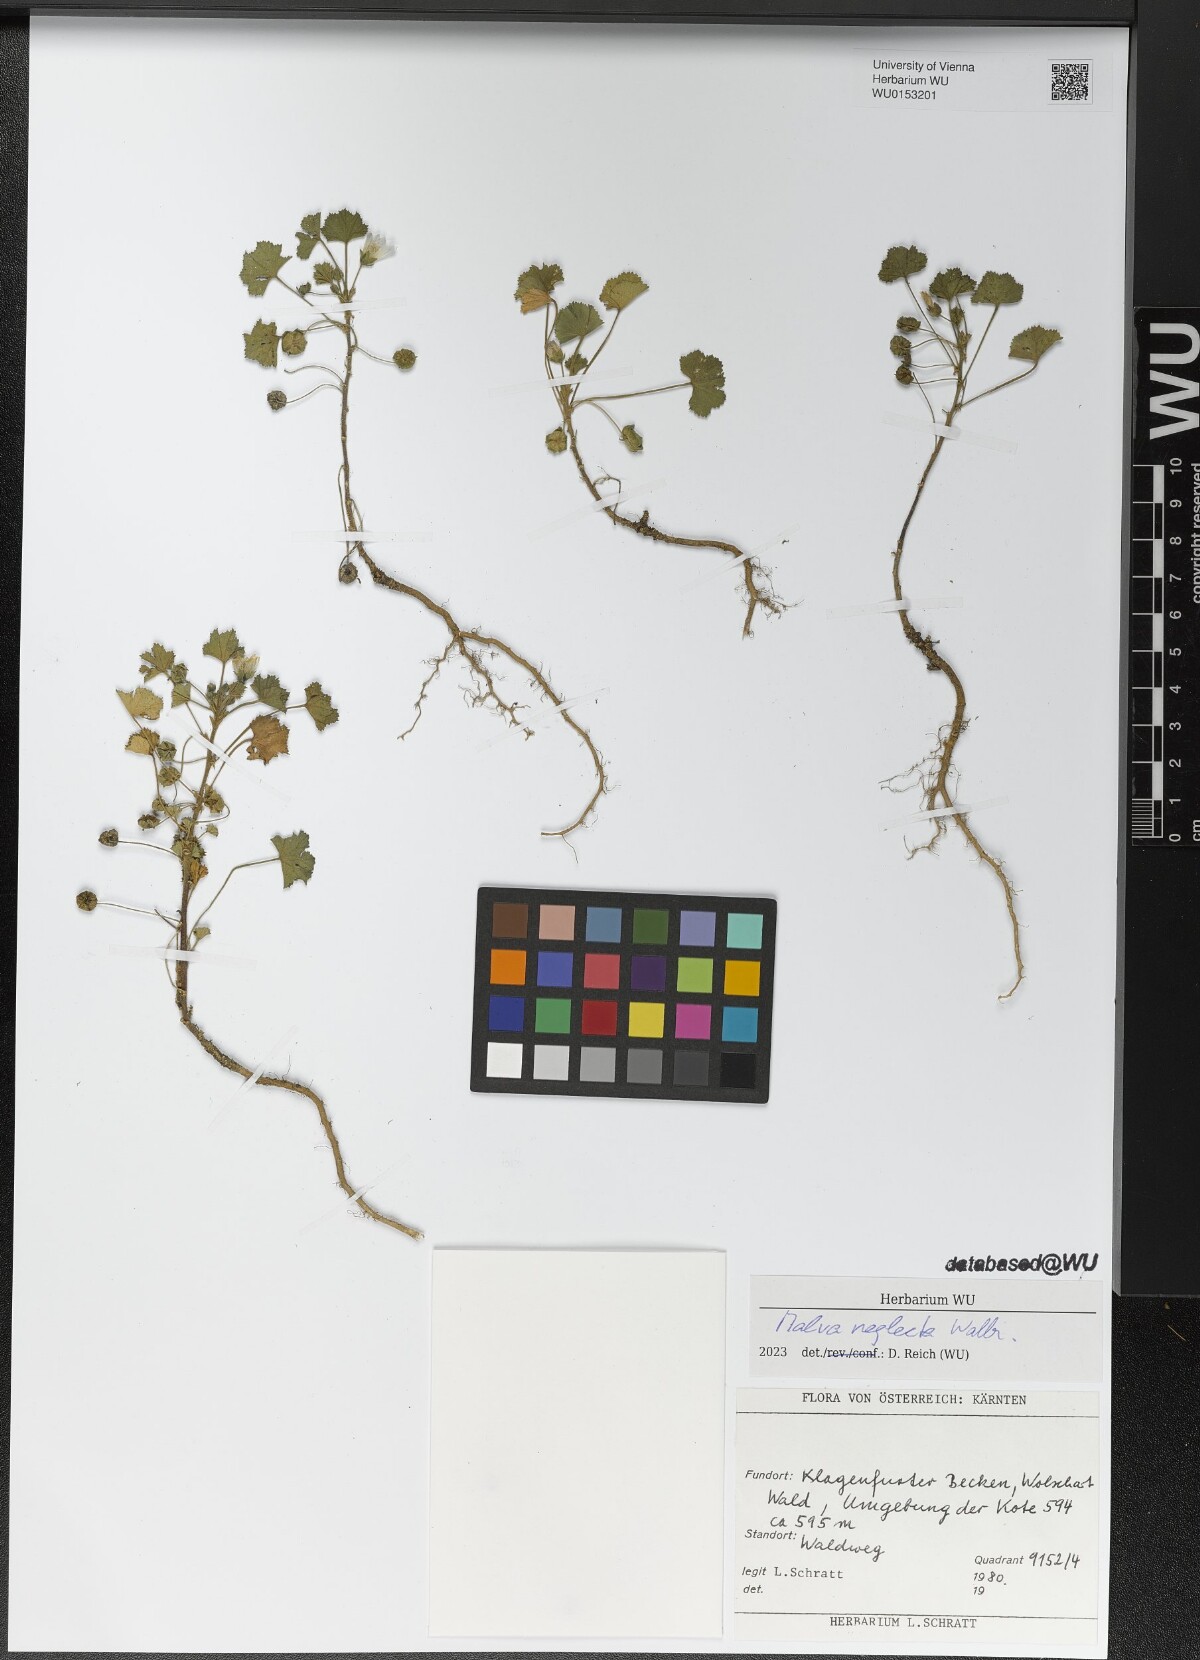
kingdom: Plantae
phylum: Tracheophyta
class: Magnoliopsida
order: Malvales
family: Malvaceae
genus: Malva
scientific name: Malva neglecta
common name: Common mallow
